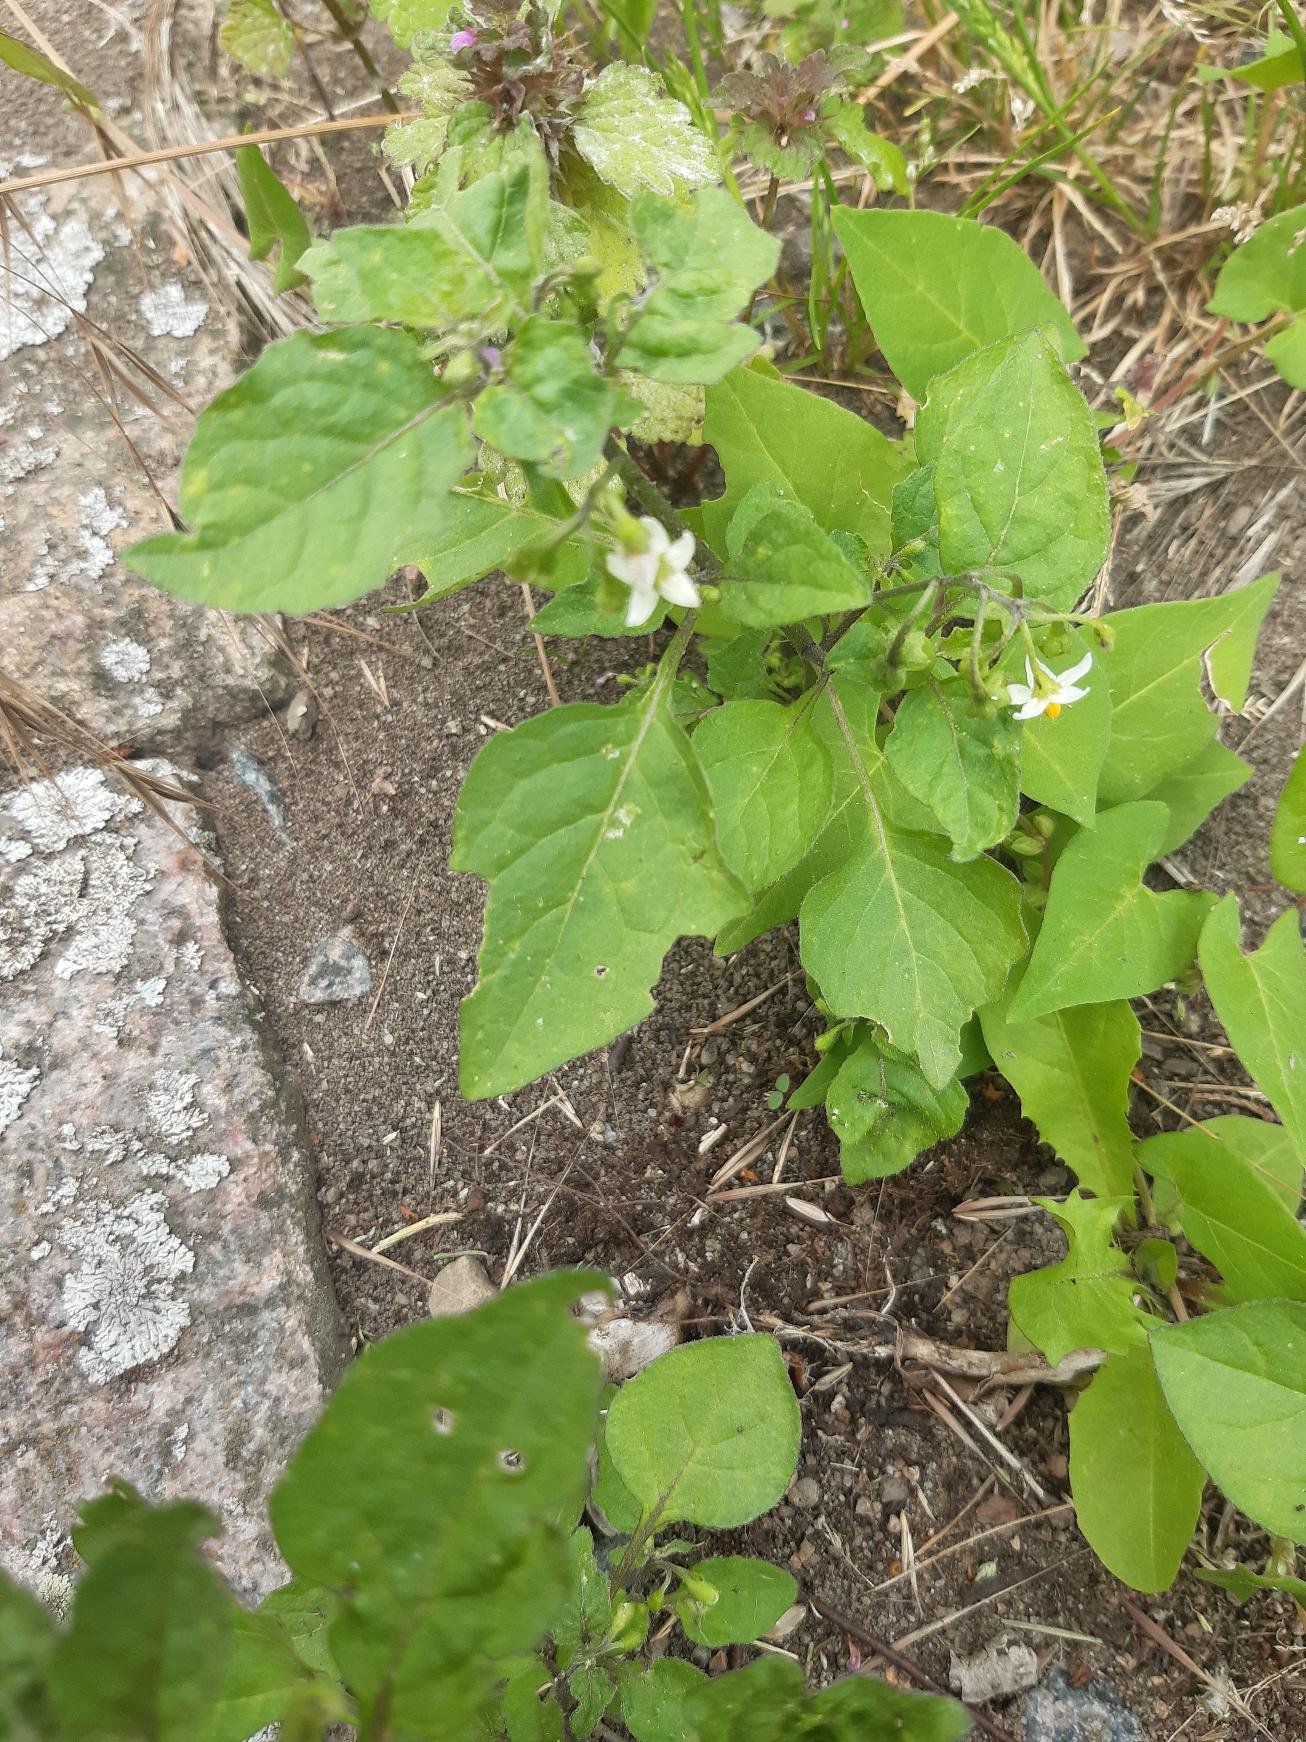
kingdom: Plantae
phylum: Tracheophyta
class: Magnoliopsida
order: Solanales
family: Solanaceae
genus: Solanum
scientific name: Solanum nigrum
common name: Sort natskygge
